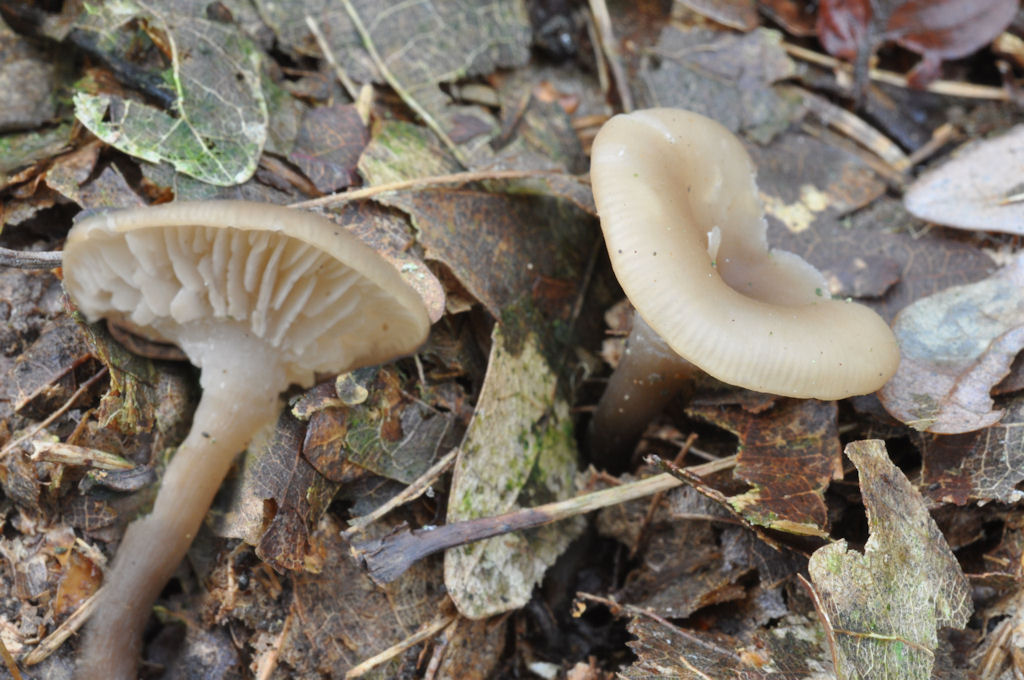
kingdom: Fungi
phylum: Basidiomycota
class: Agaricomycetes
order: Agaricales
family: Tricholomataceae
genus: Clitocybe
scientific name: Clitocybe metachroa
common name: grå tragthat
